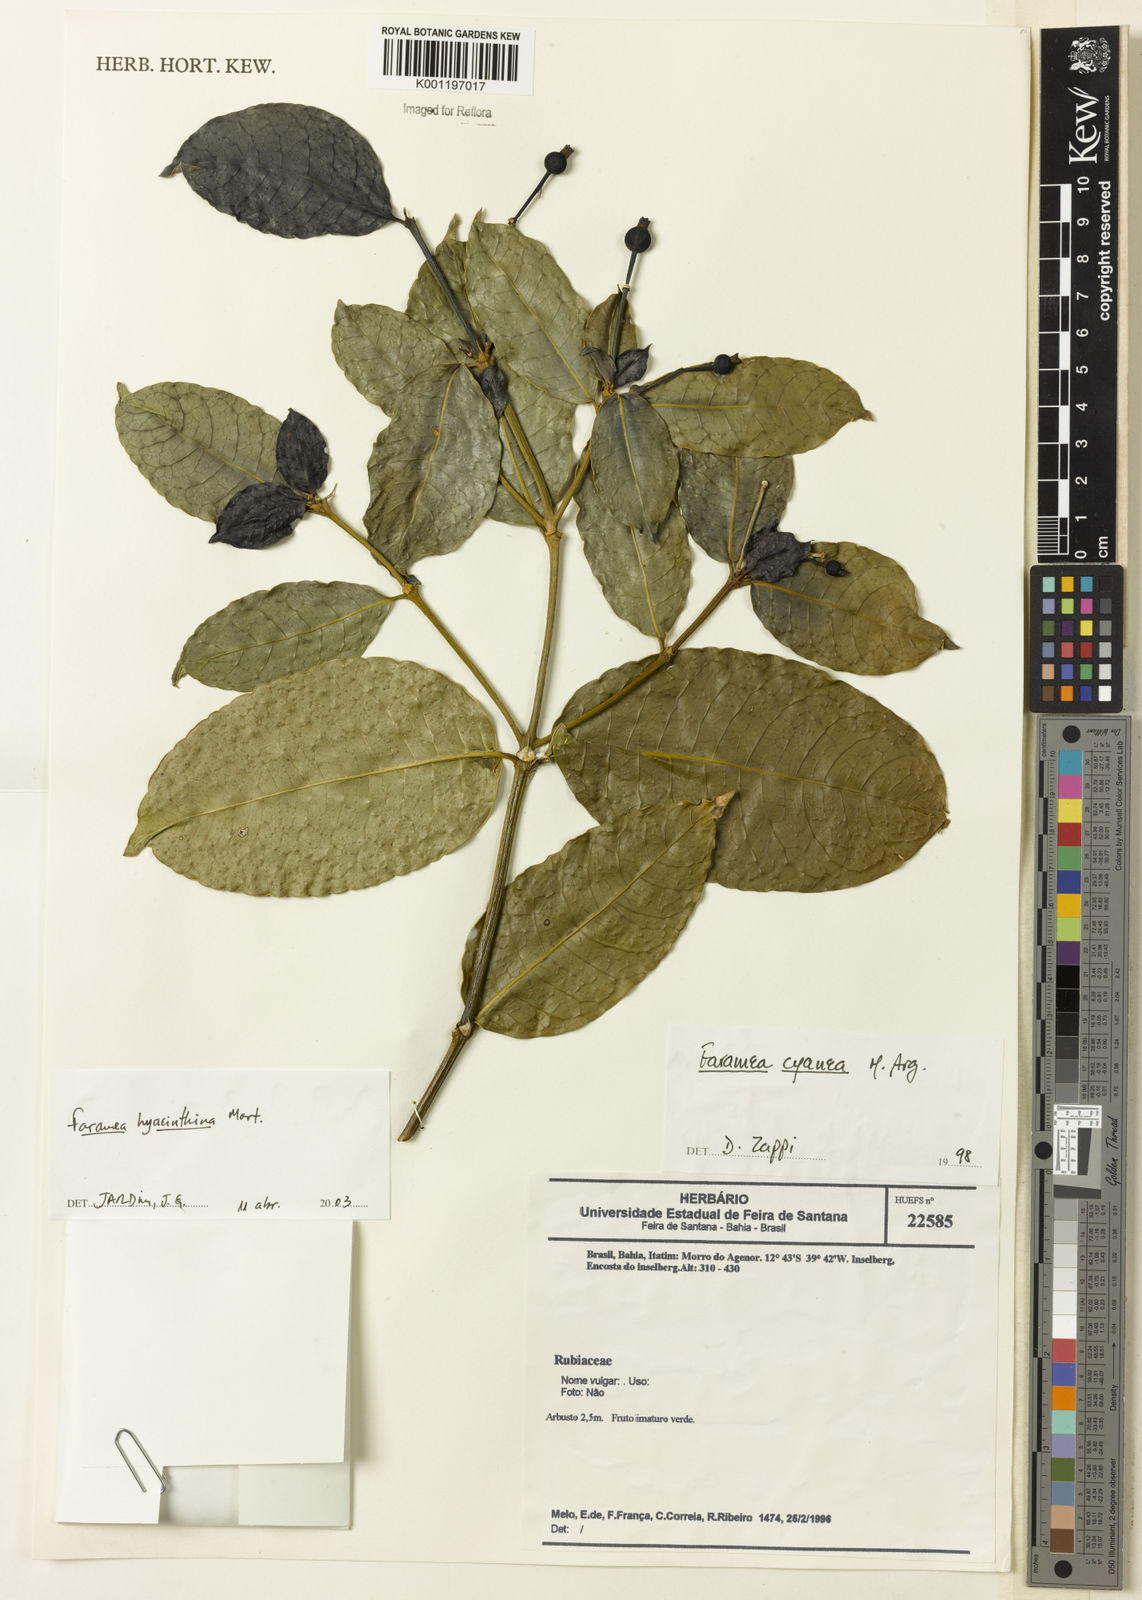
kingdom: Plantae
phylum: Tracheophyta
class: Magnoliopsida
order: Gentianales
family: Rubiaceae
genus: Faramea
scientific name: Faramea hyacinthina
